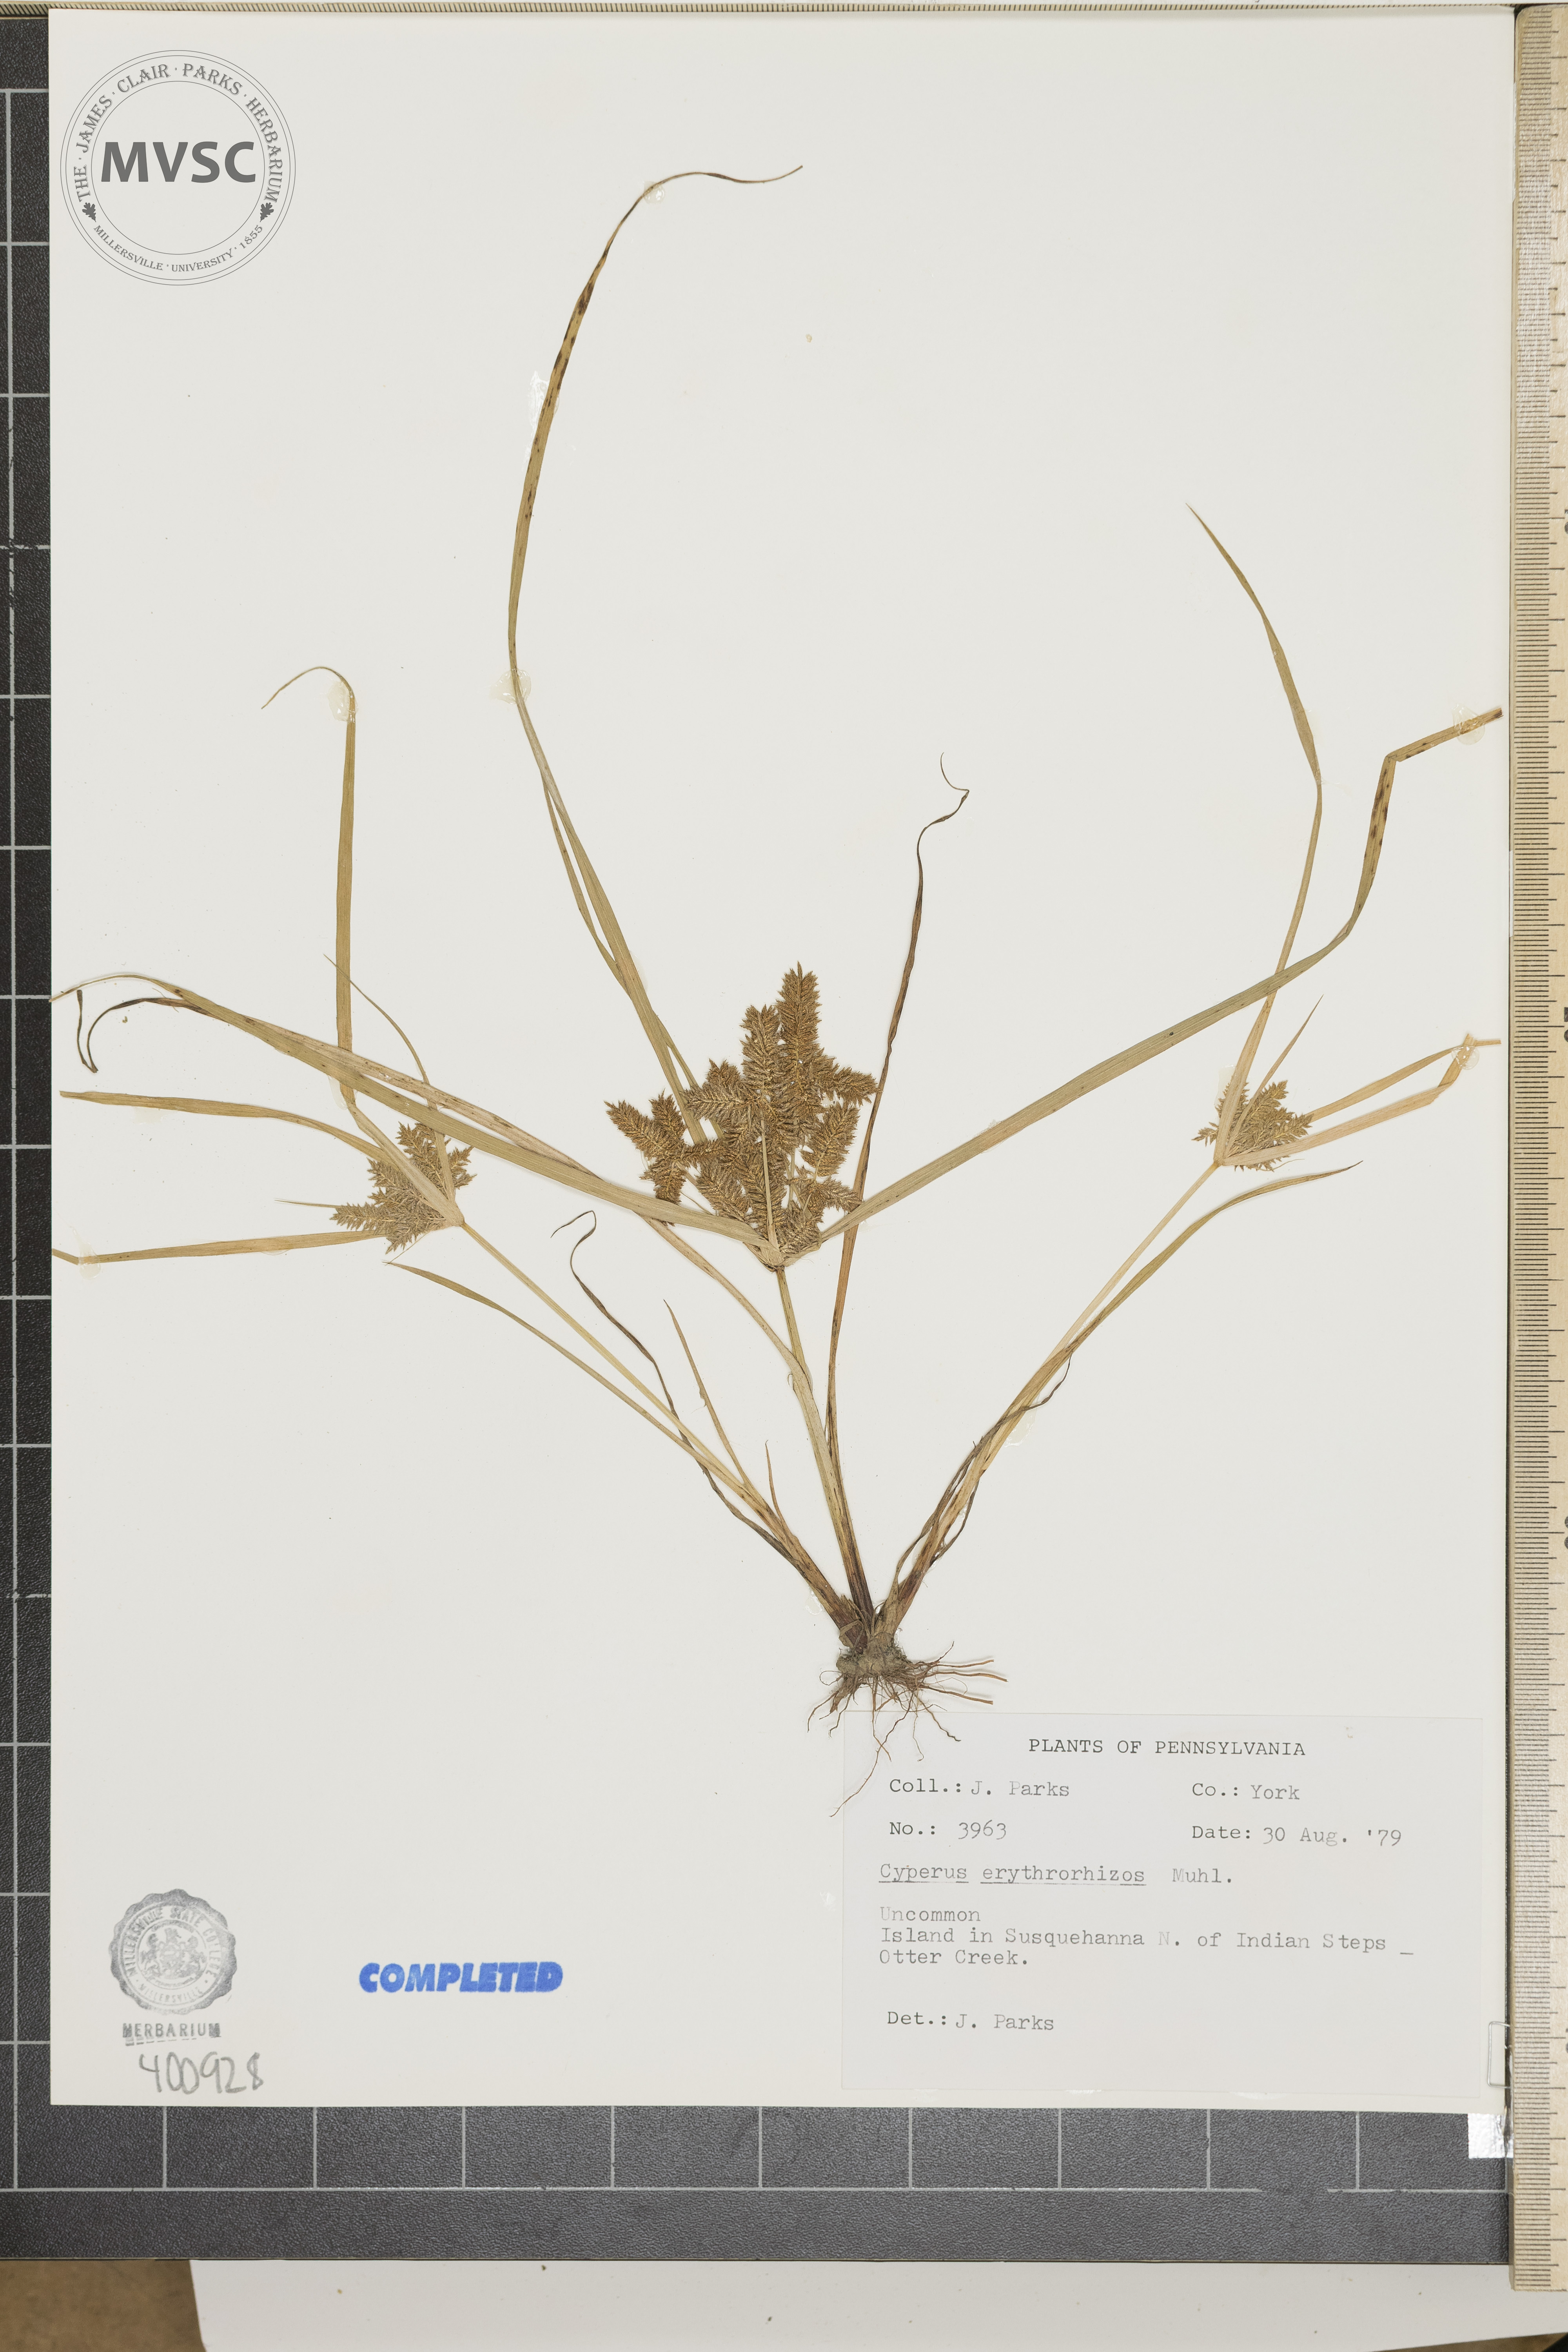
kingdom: Plantae
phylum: Tracheophyta
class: Liliopsida
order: Poales
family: Cyperaceae
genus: Cyperus
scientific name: Cyperus erythrorhizos
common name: sedge
